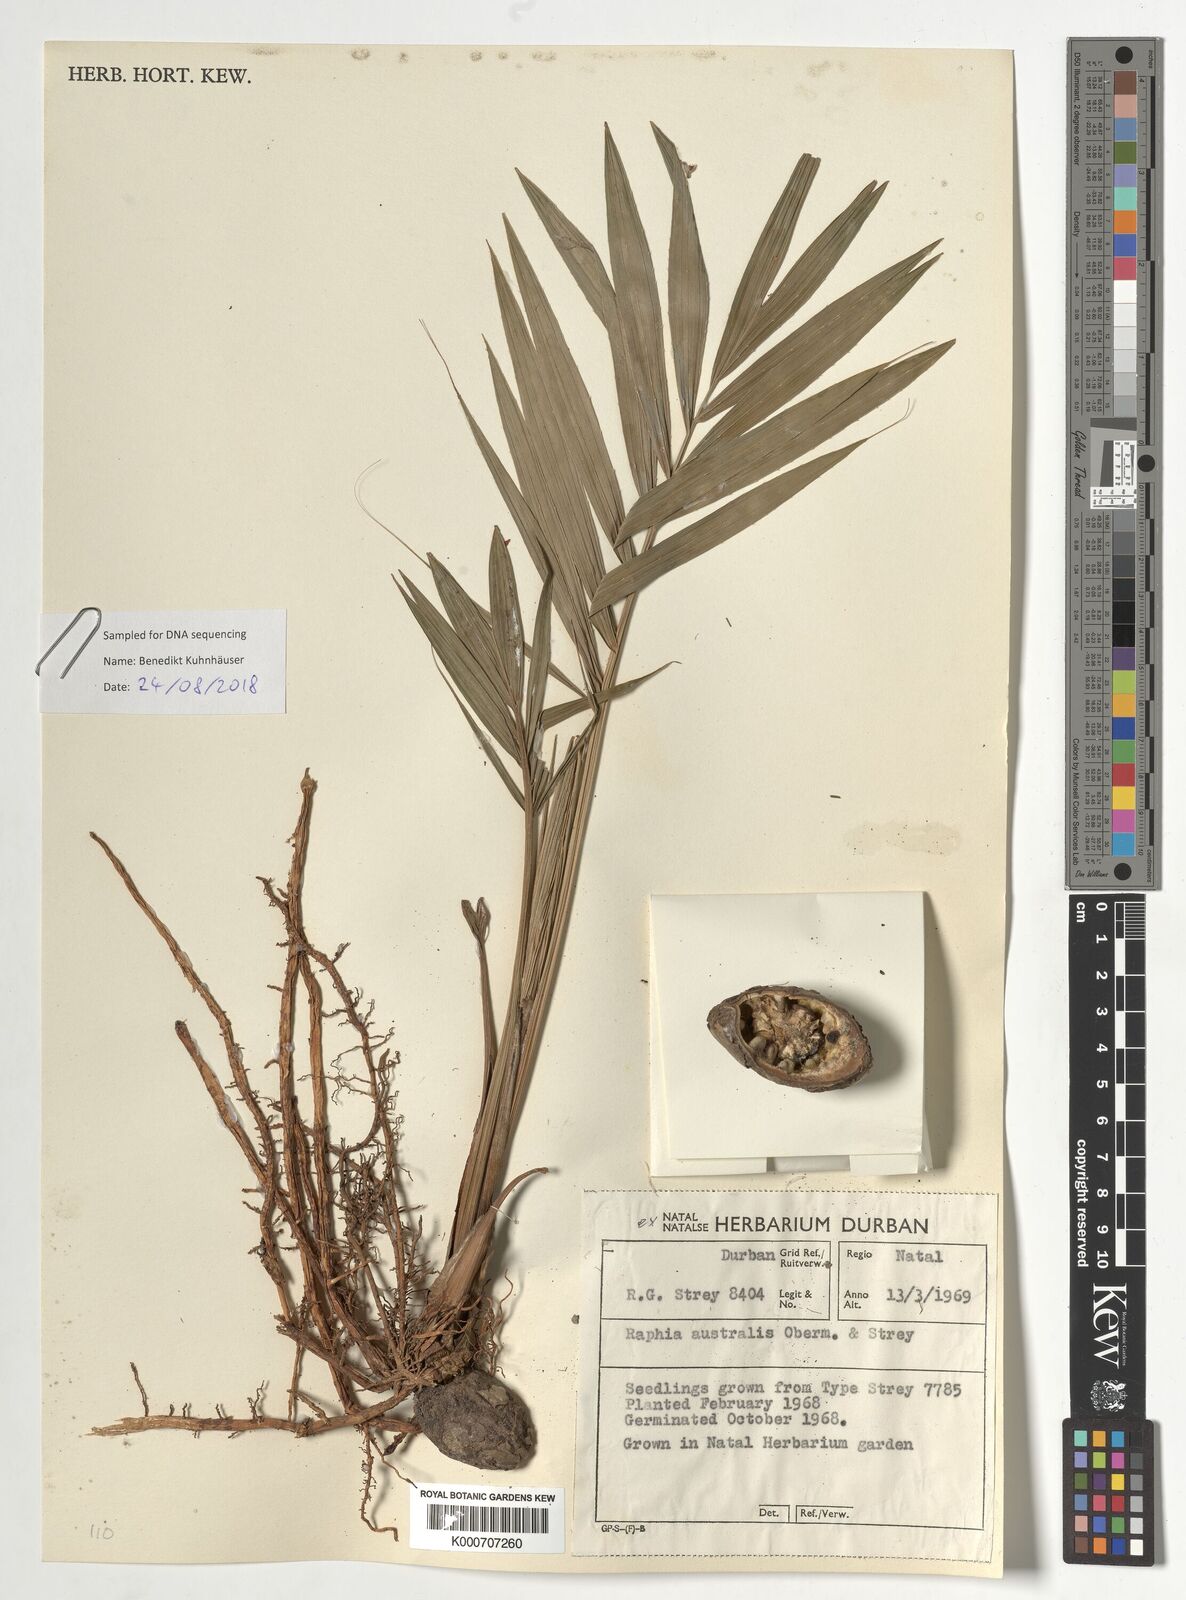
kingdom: Plantae
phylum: Tracheophyta
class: Liliopsida
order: Arecales
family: Arecaceae
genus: Raphia
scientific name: Raphia australis
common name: Giant palm
